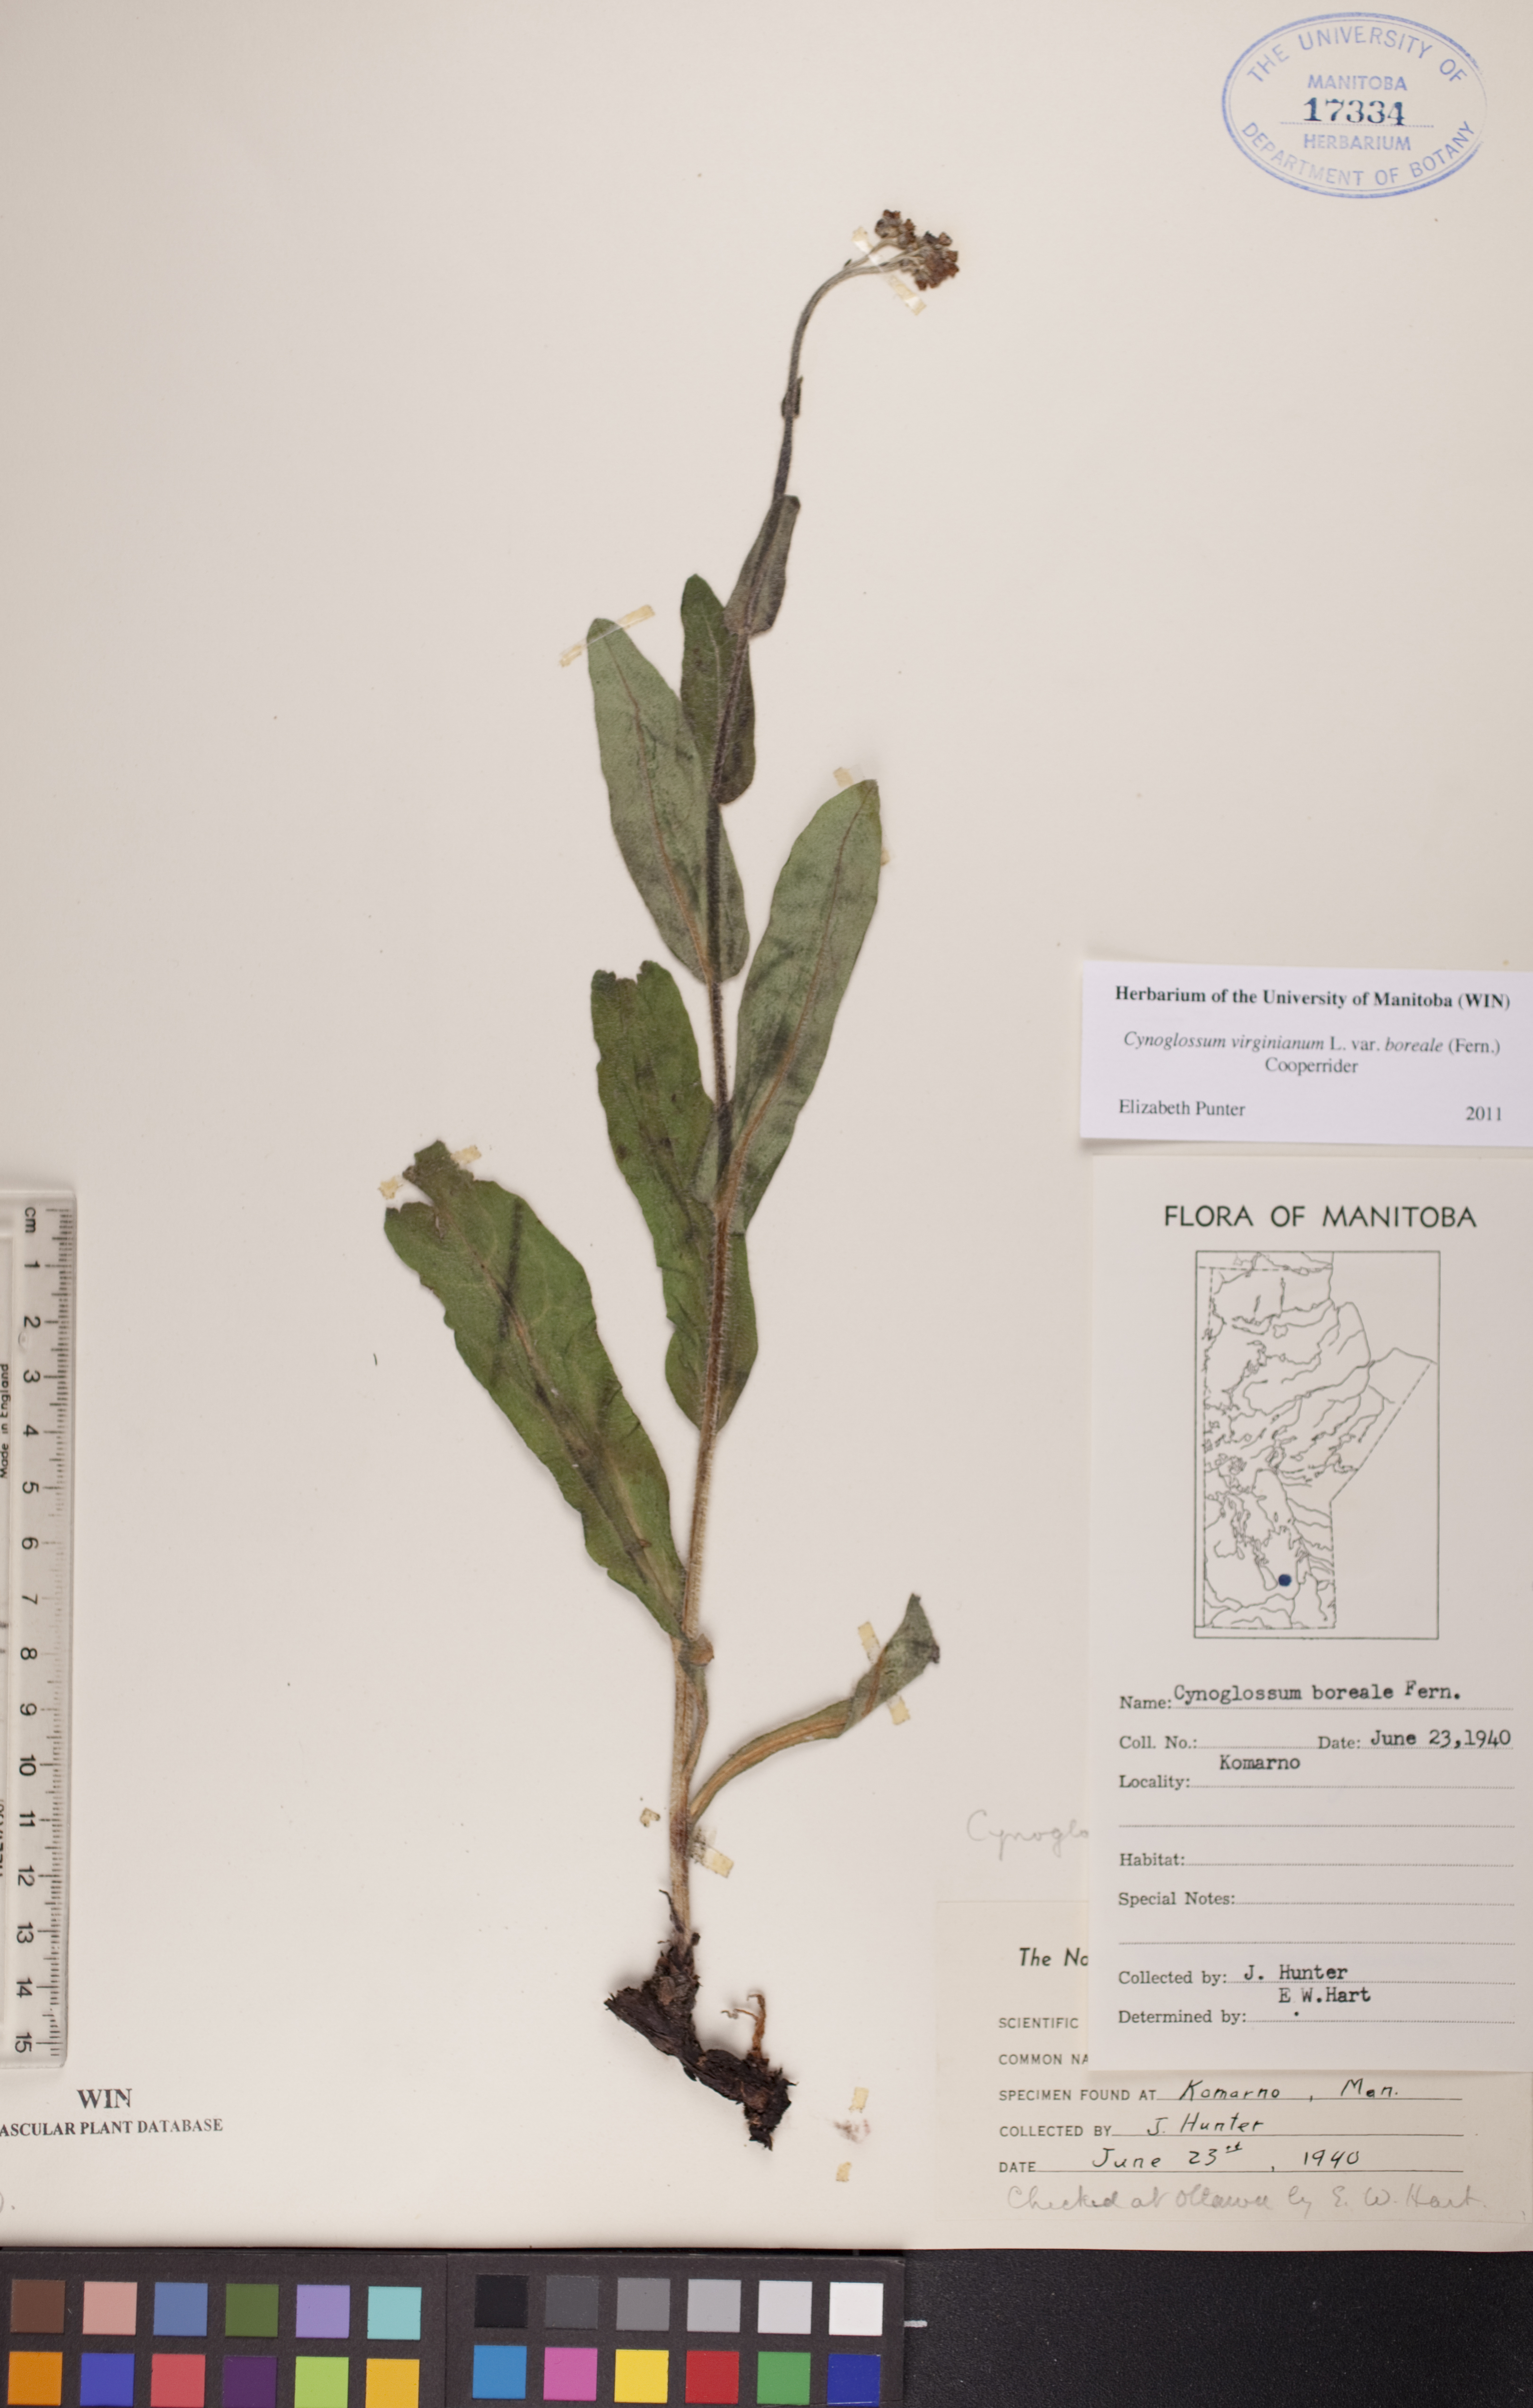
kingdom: Plantae
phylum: Tracheophyta
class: Magnoliopsida
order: Boraginales
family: Boraginaceae
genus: Andersonglossum
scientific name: Andersonglossum boreale
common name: Northern hound's-tongue
